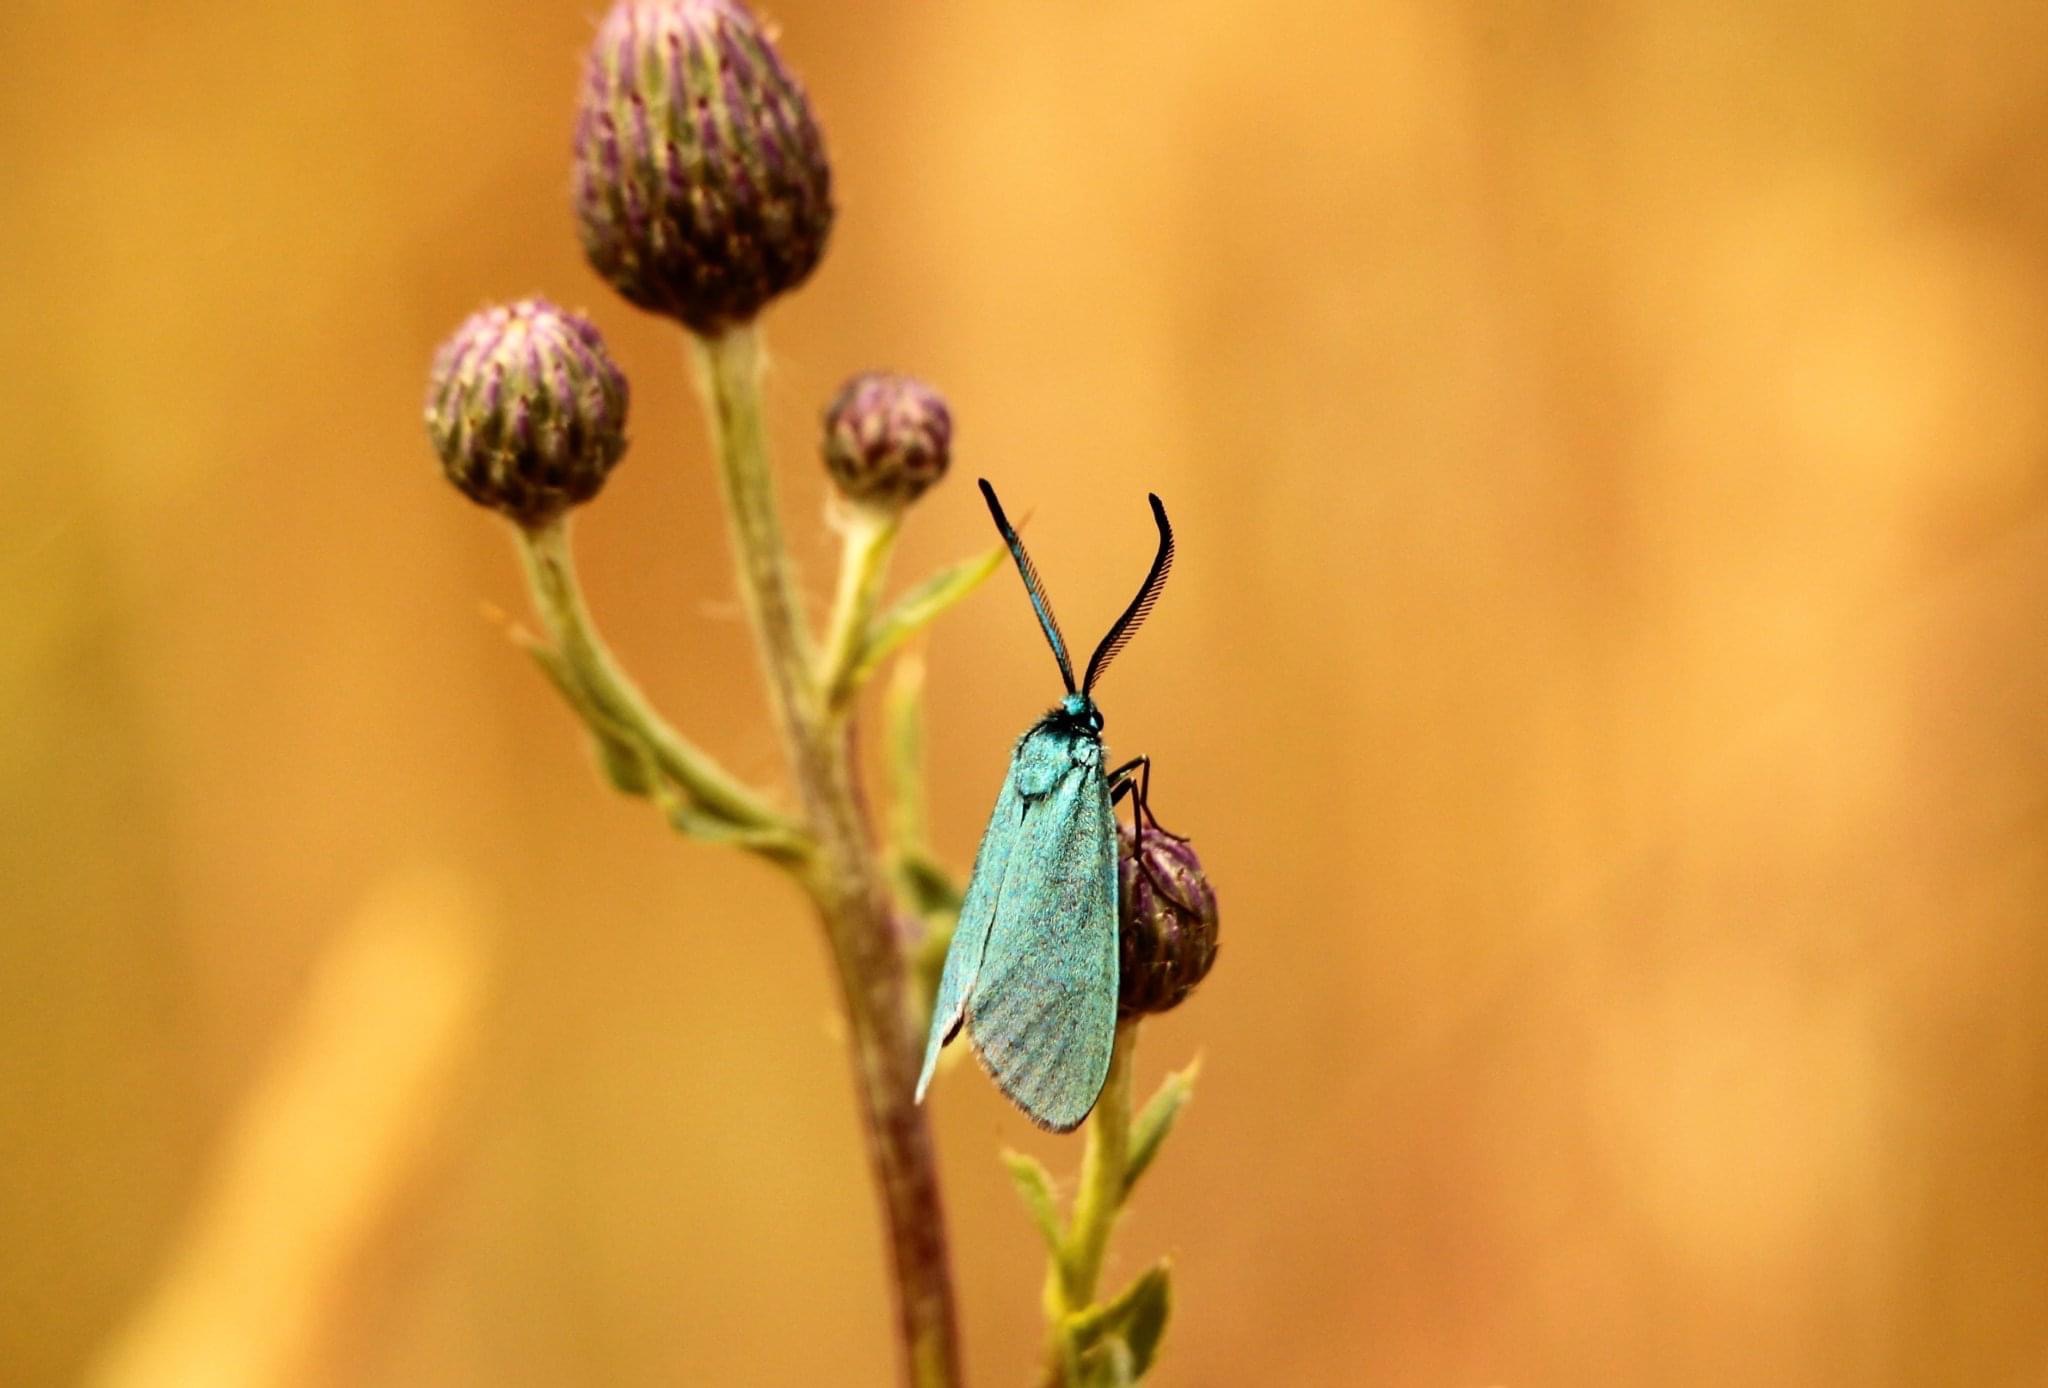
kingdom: Animalia
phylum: Arthropoda
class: Insecta
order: Lepidoptera
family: Zygaenidae
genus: Adscita
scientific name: Adscita statices
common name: Metalvinge
